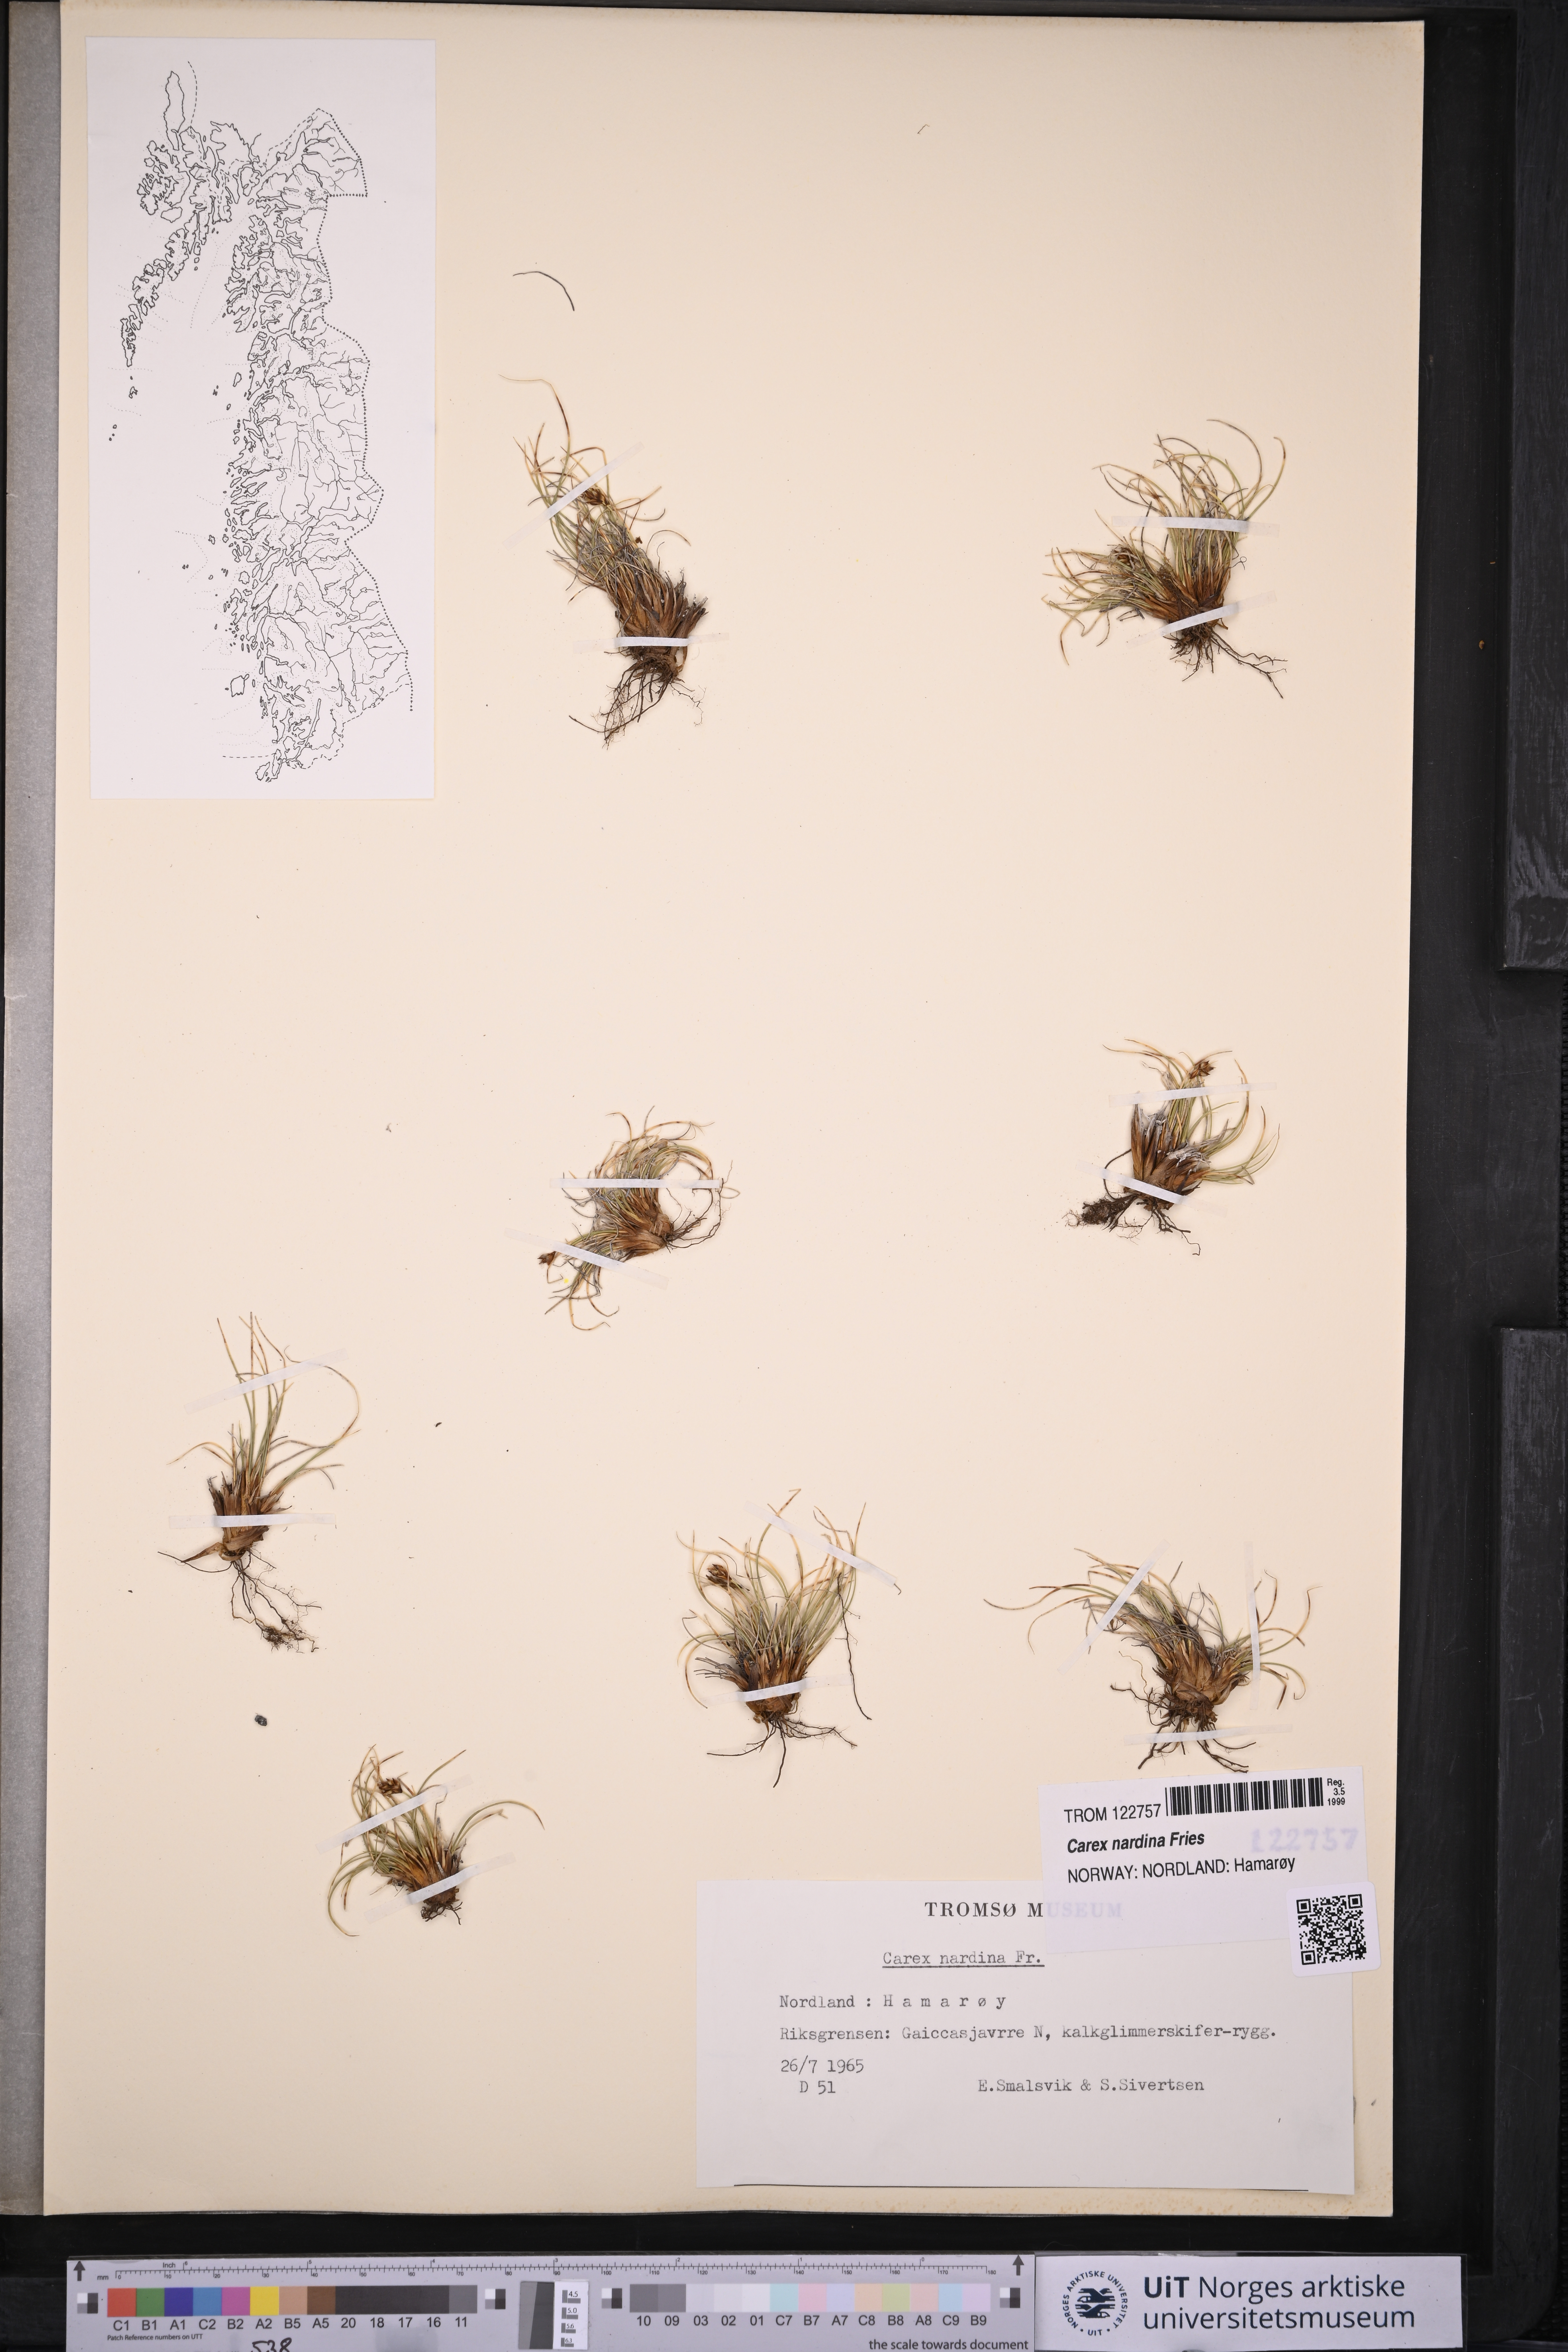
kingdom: Plantae
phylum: Tracheophyta
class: Liliopsida
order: Poales
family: Cyperaceae
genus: Carex
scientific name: Carex nardina
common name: Nard sedge
